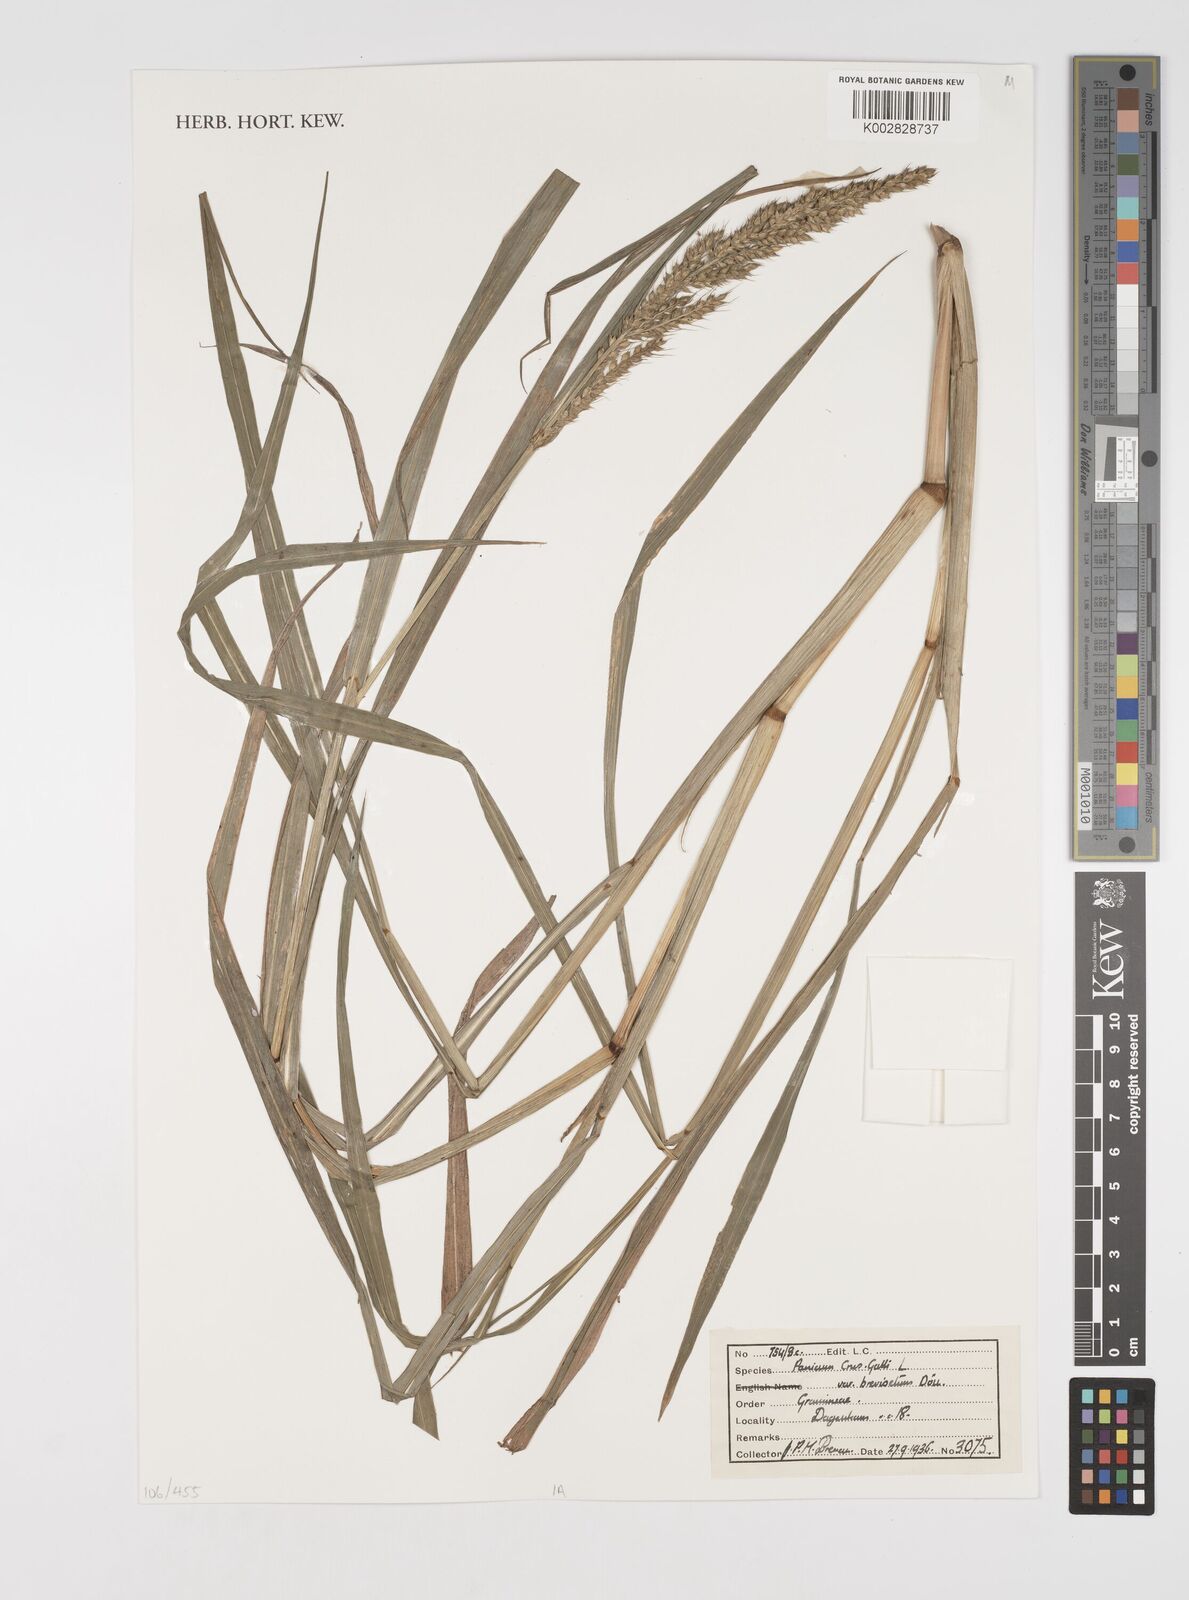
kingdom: Plantae
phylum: Tracheophyta
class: Liliopsida
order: Poales
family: Poaceae
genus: Echinochloa
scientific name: Echinochloa crus-galli
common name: Cockspur
